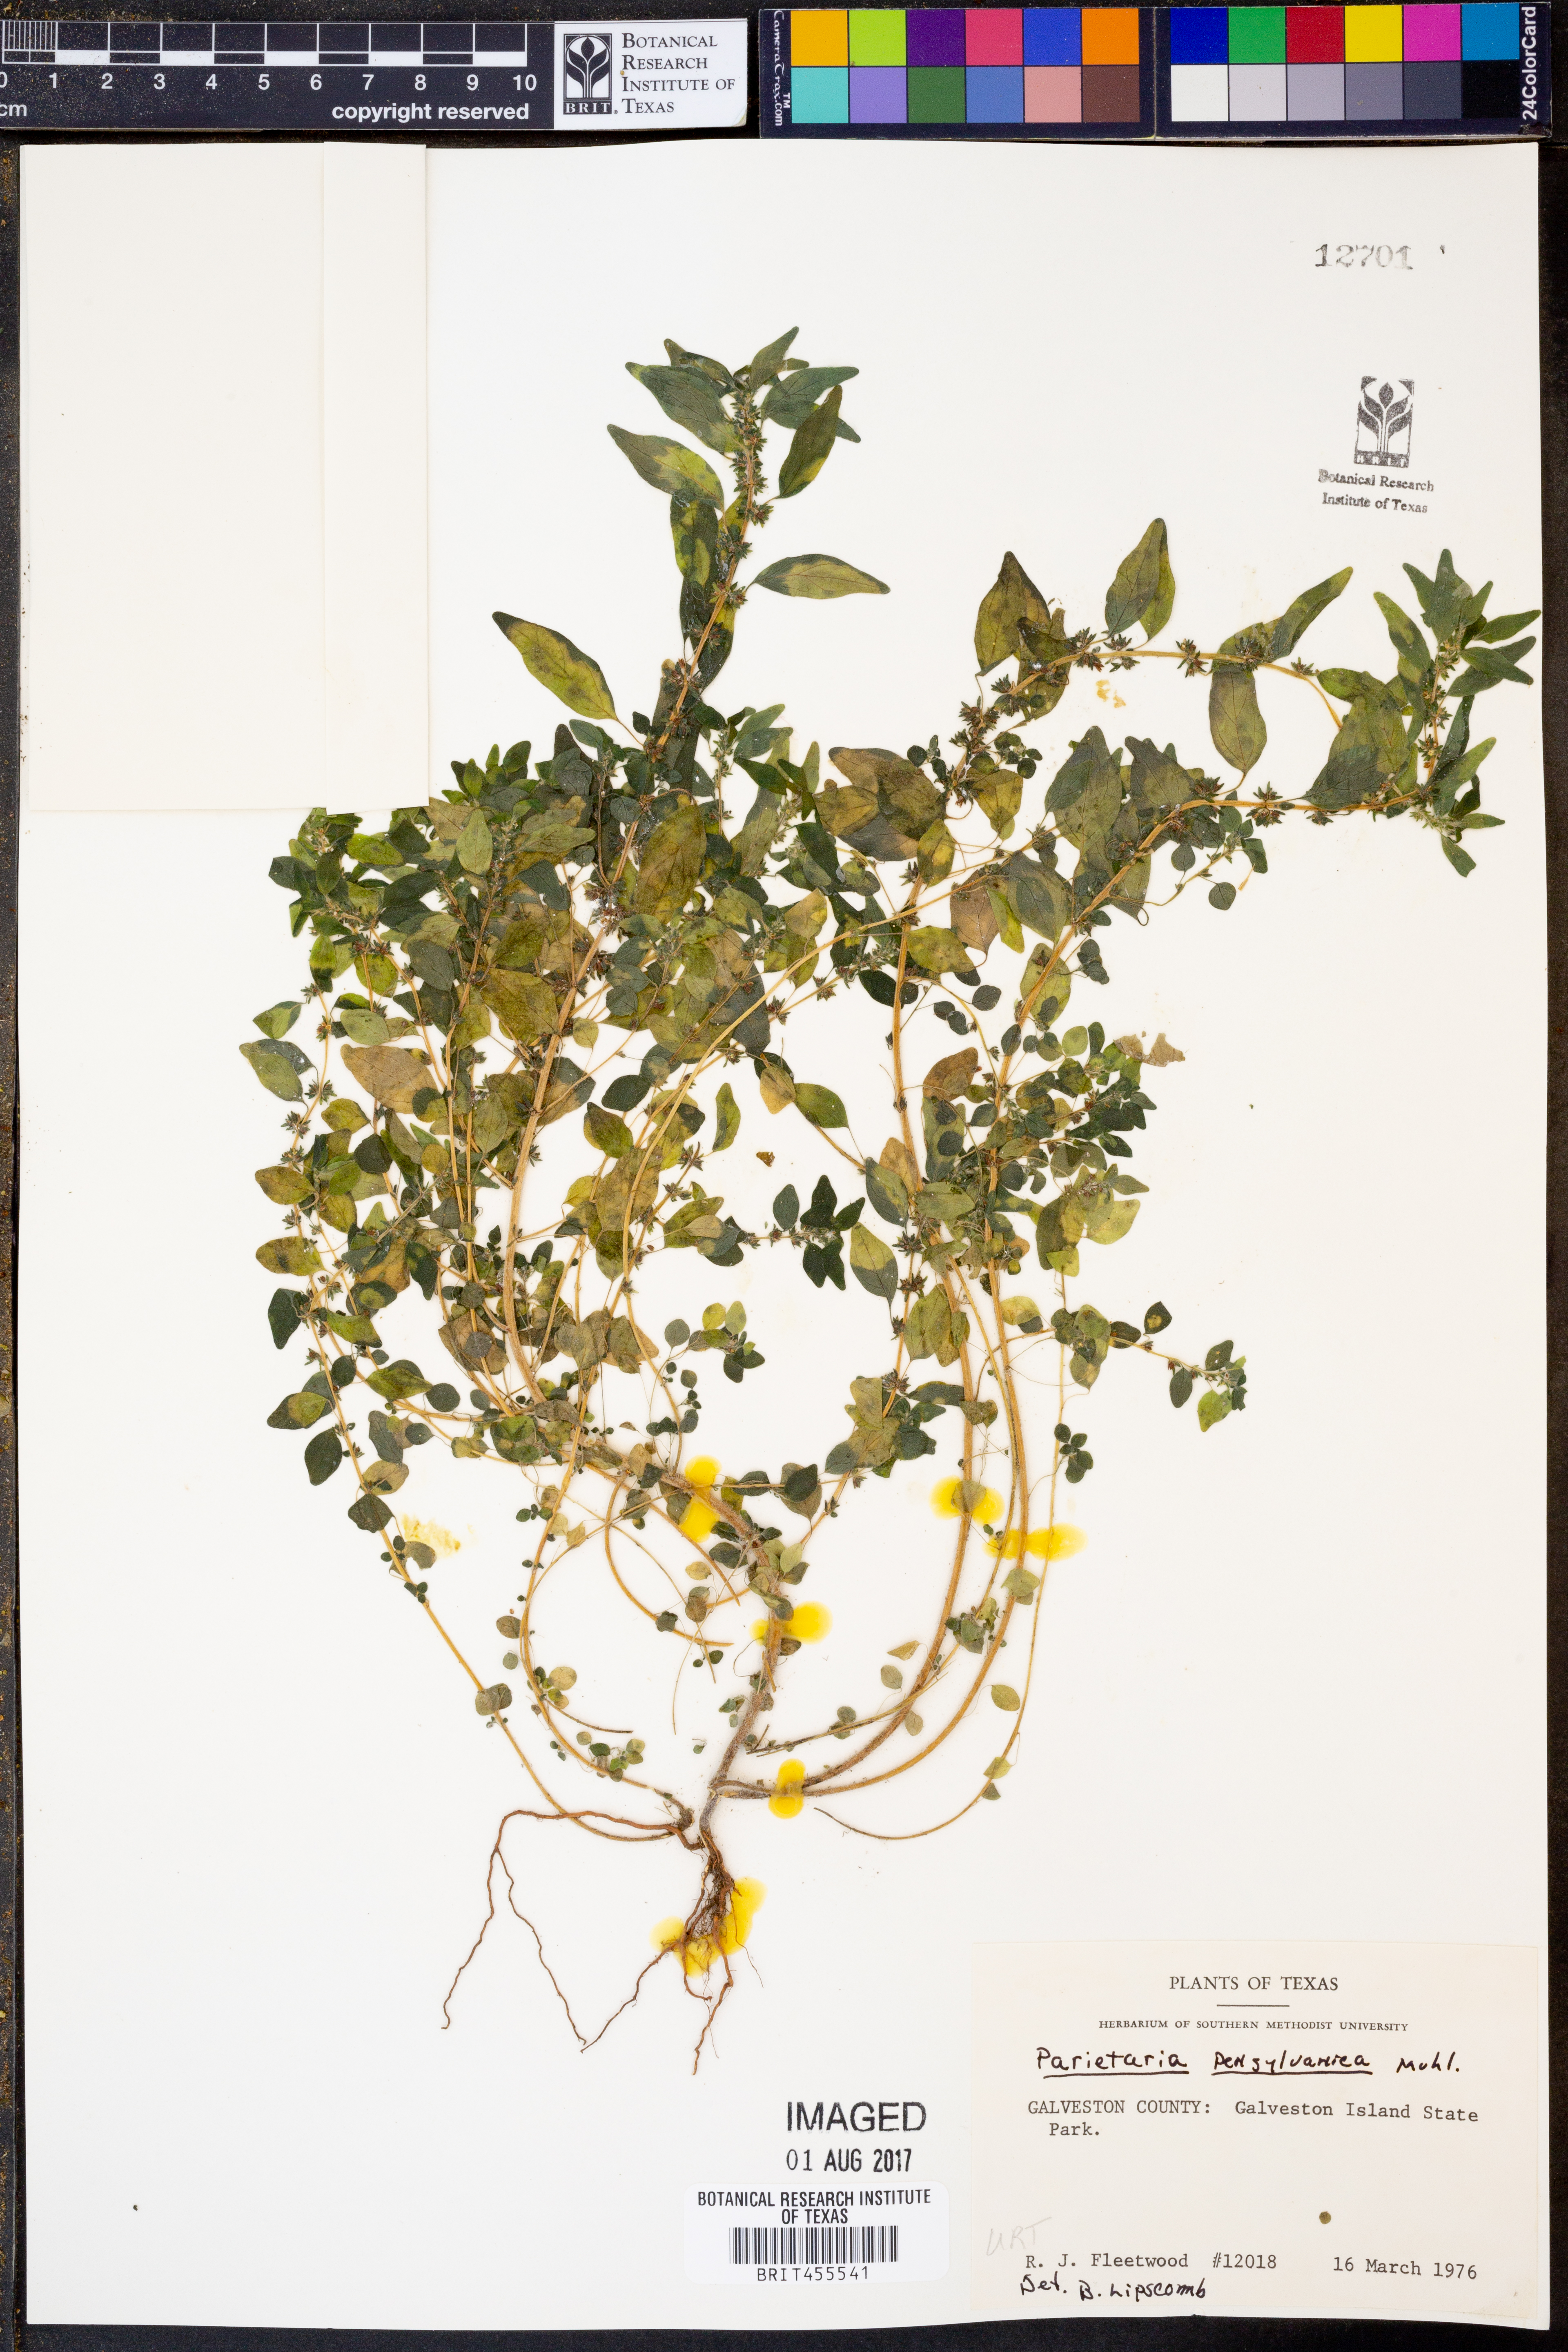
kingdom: Plantae
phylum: Tracheophyta
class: Magnoliopsida
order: Rosales
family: Urticaceae
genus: Parietaria
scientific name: Parietaria pensylvanica
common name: Pennsylvania pellitory
